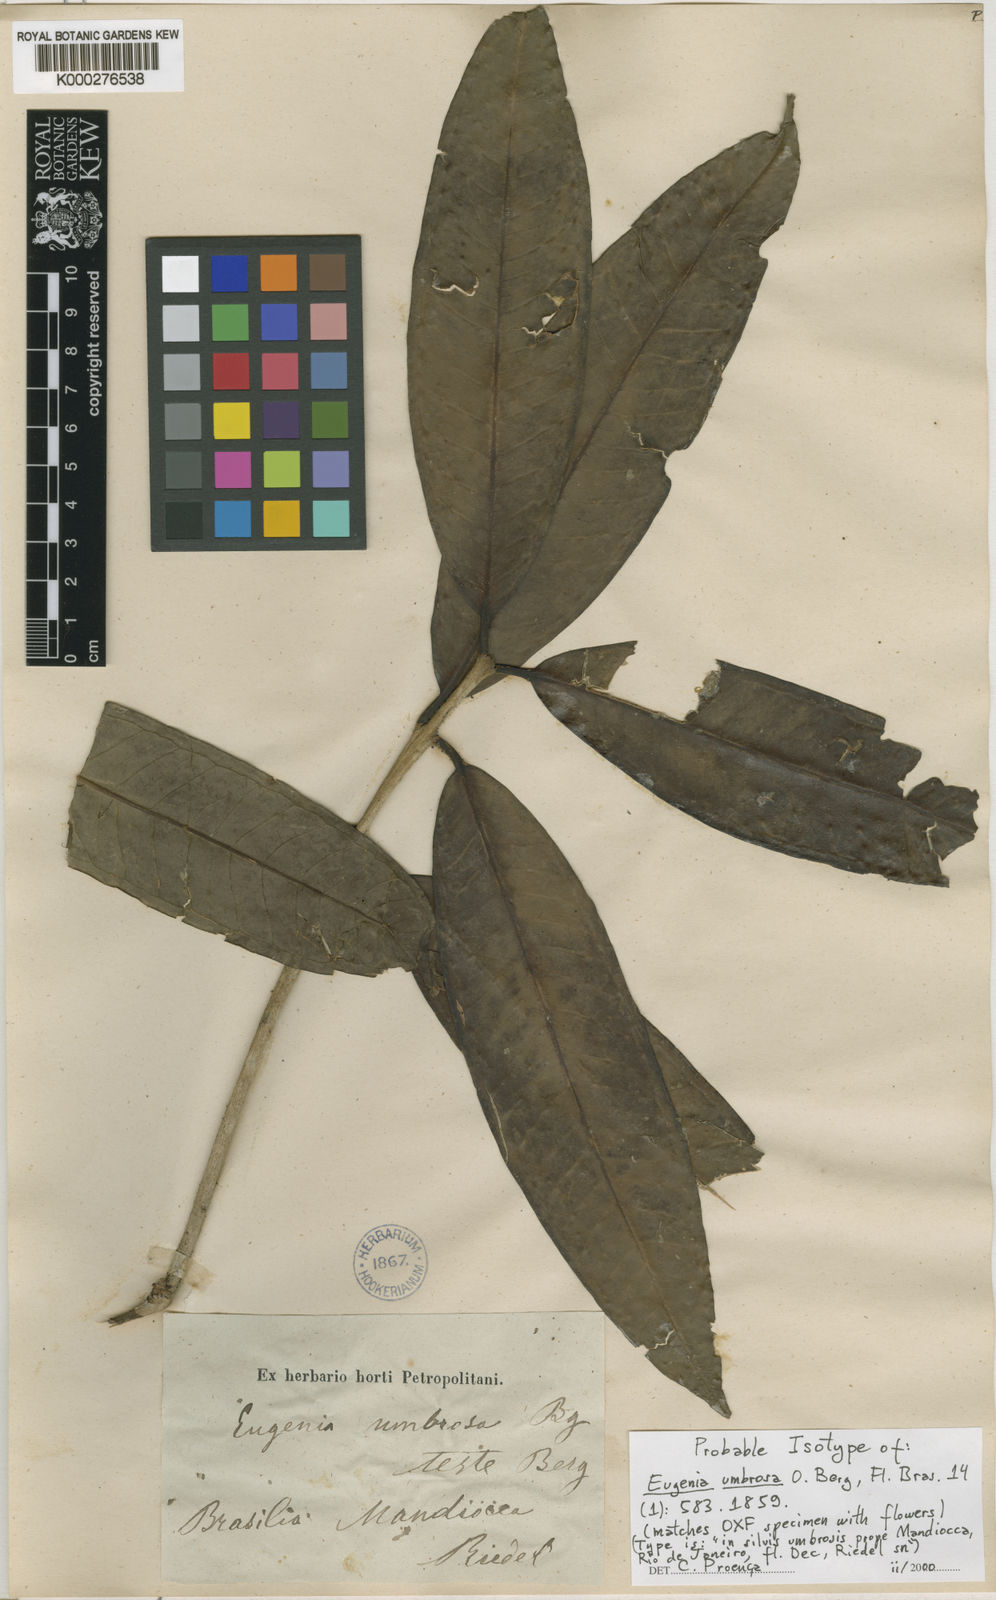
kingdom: Plantae
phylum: Tracheophyta
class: Magnoliopsida
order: Myrtales
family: Myrtaceae
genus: Eugenia
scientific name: Eugenia umbrosa
